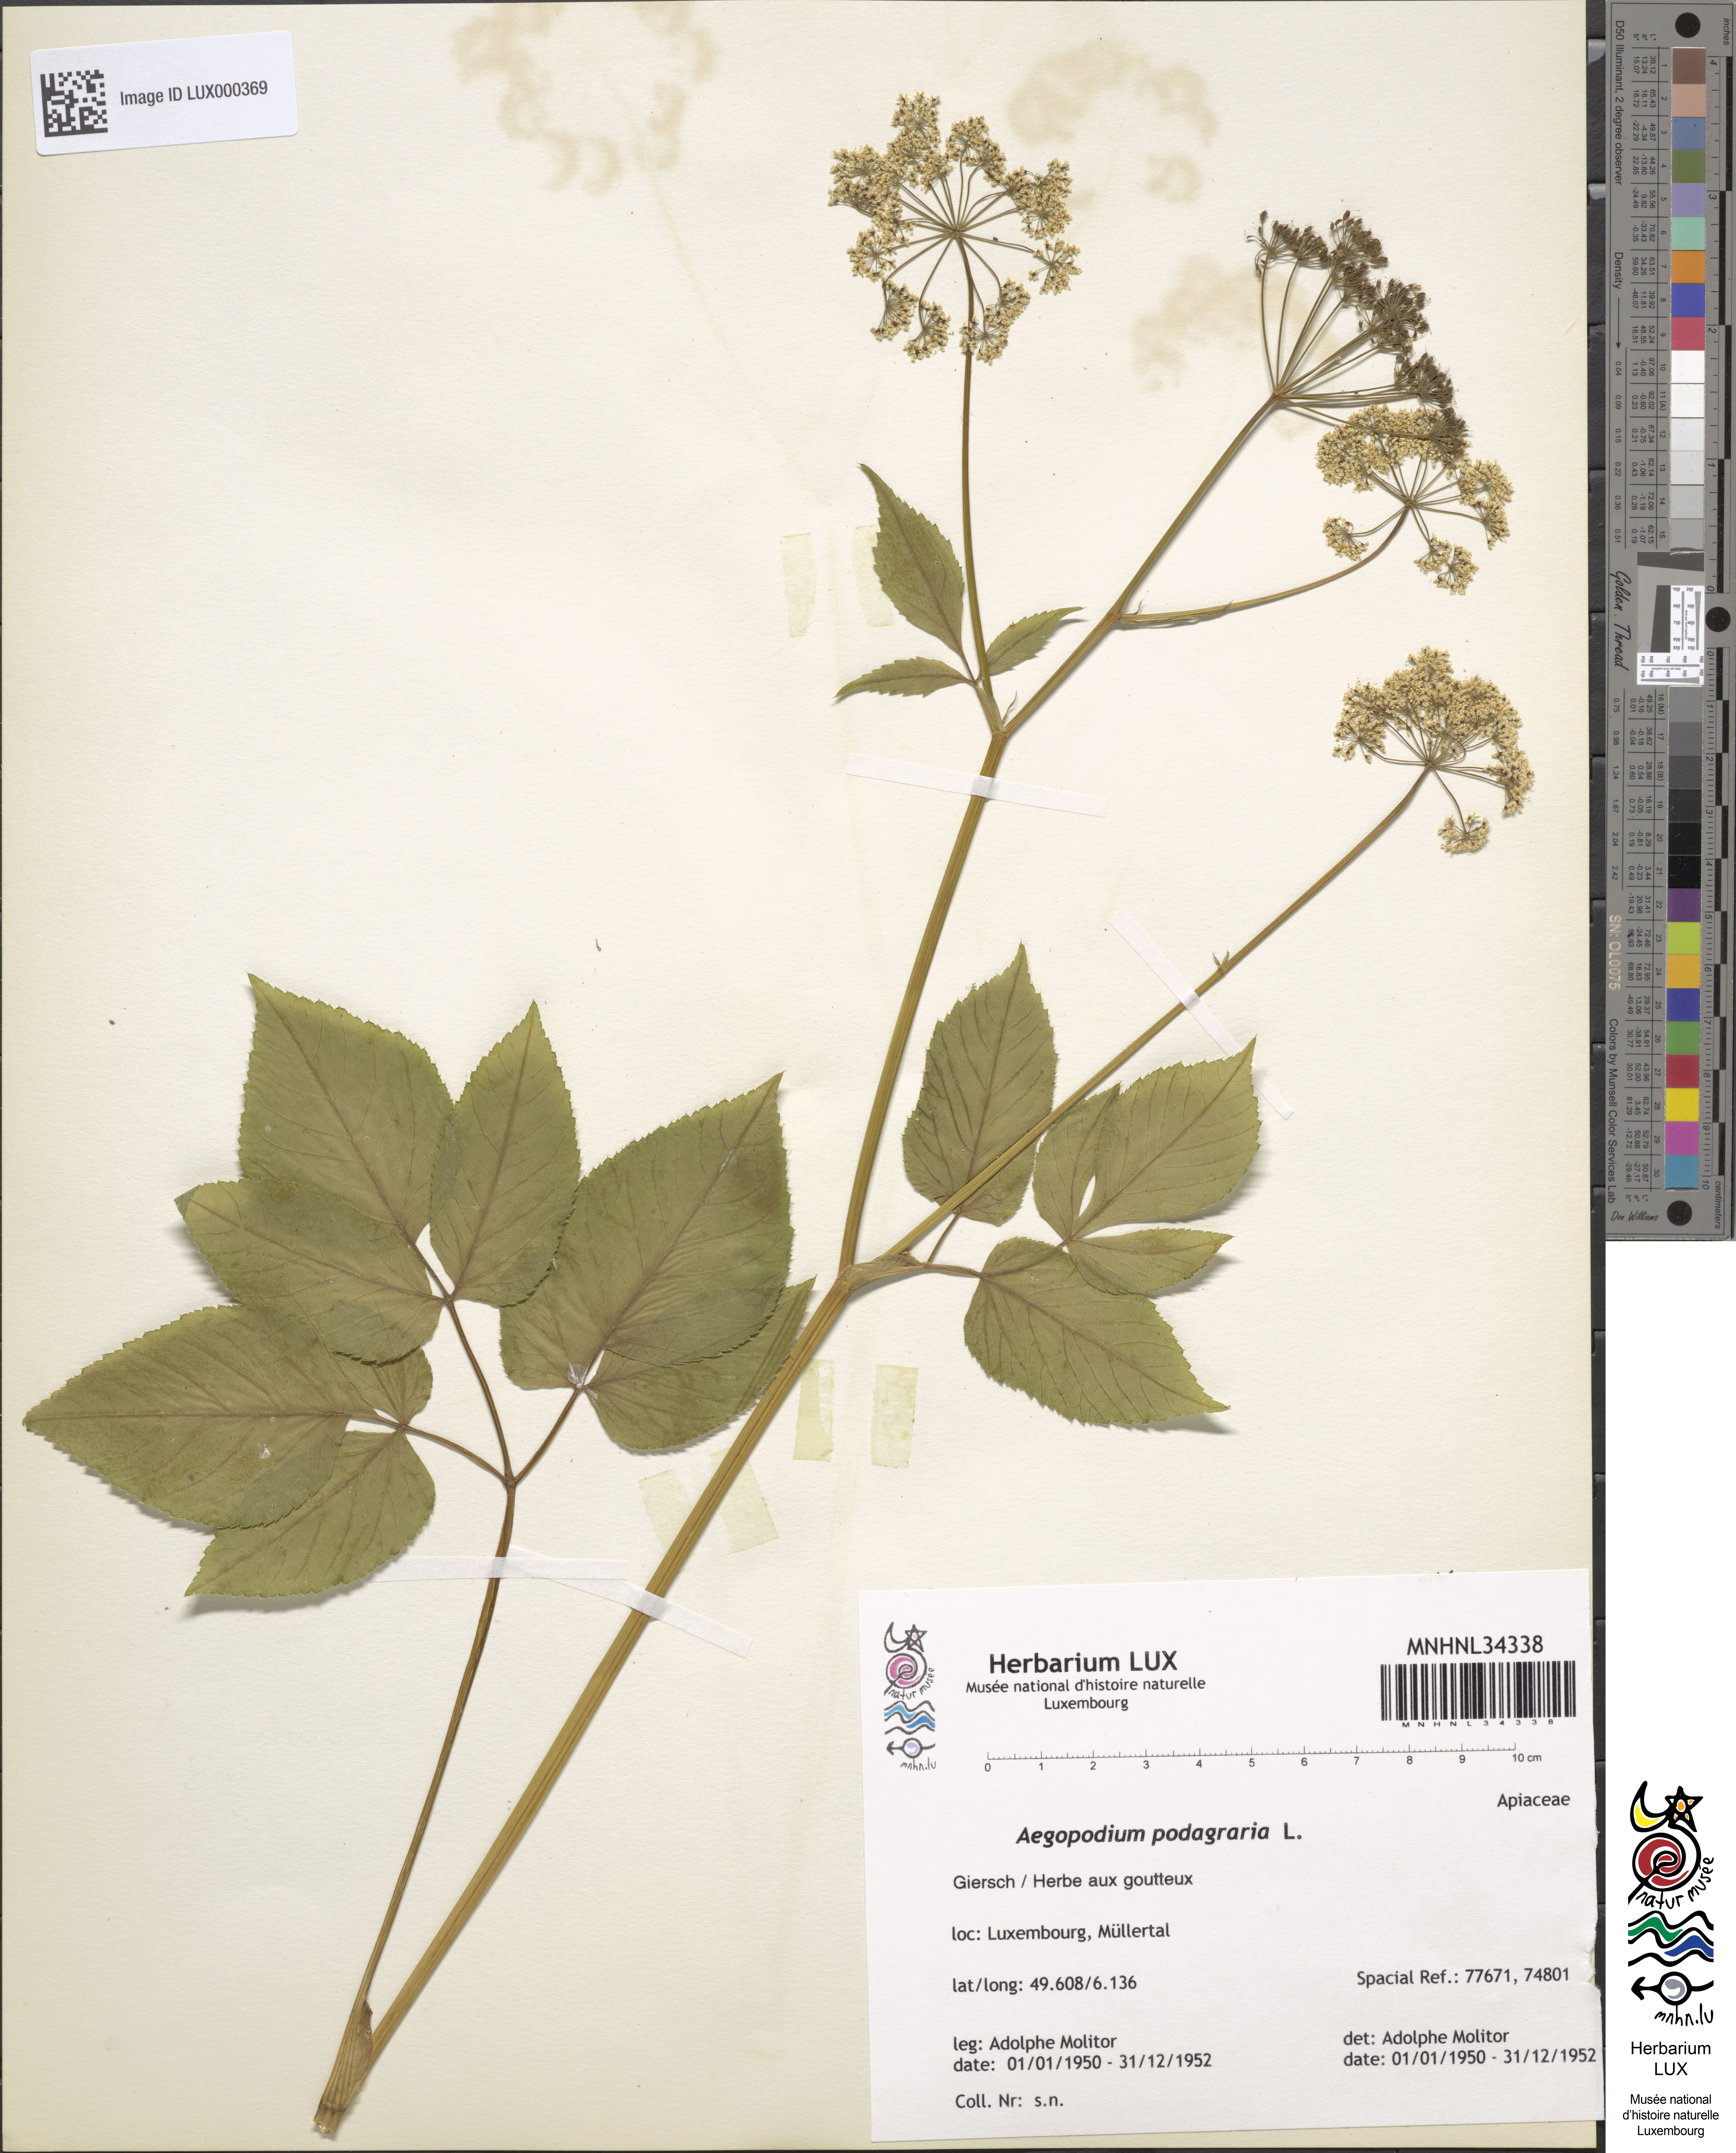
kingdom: Plantae
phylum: Tracheophyta
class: Magnoliopsida
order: Apiales
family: Apiaceae
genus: Aegopodium
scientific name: Aegopodium podagraria
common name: Ground-elder
